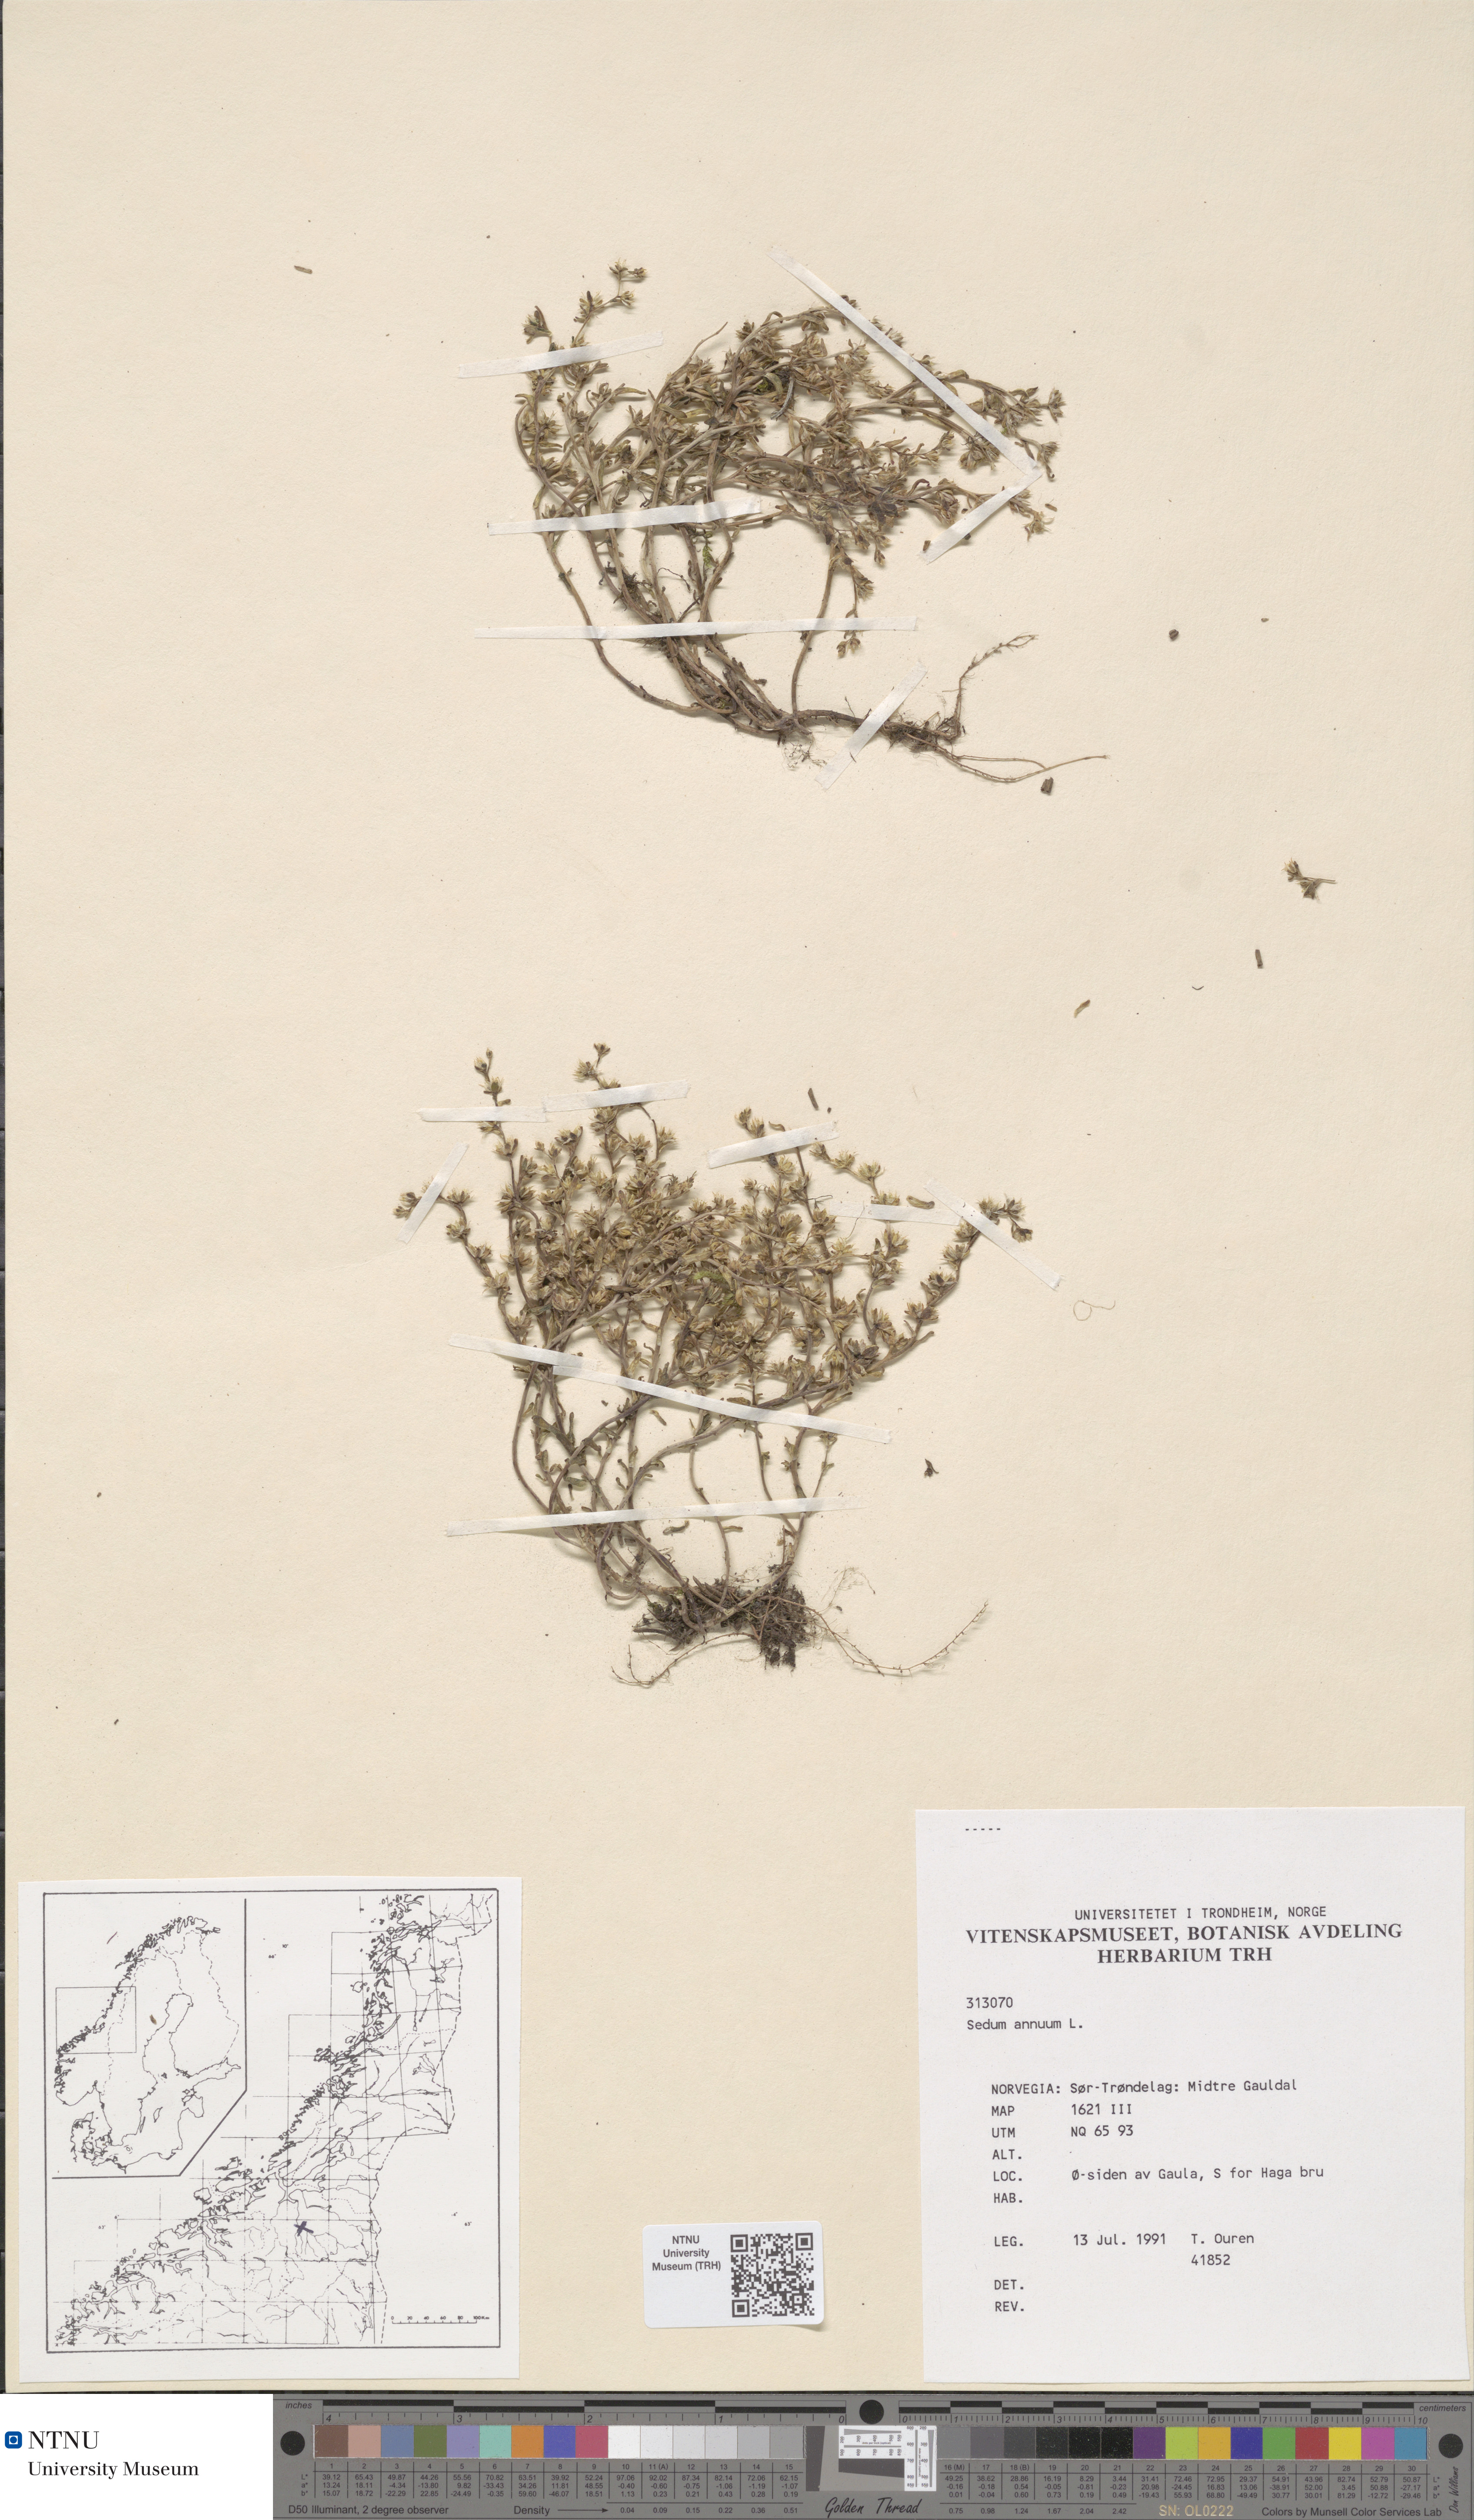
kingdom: Plantae
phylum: Tracheophyta
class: Magnoliopsida
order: Saxifragales
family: Crassulaceae
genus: Sedum
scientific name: Sedum annuum
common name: Annual stonecrop
